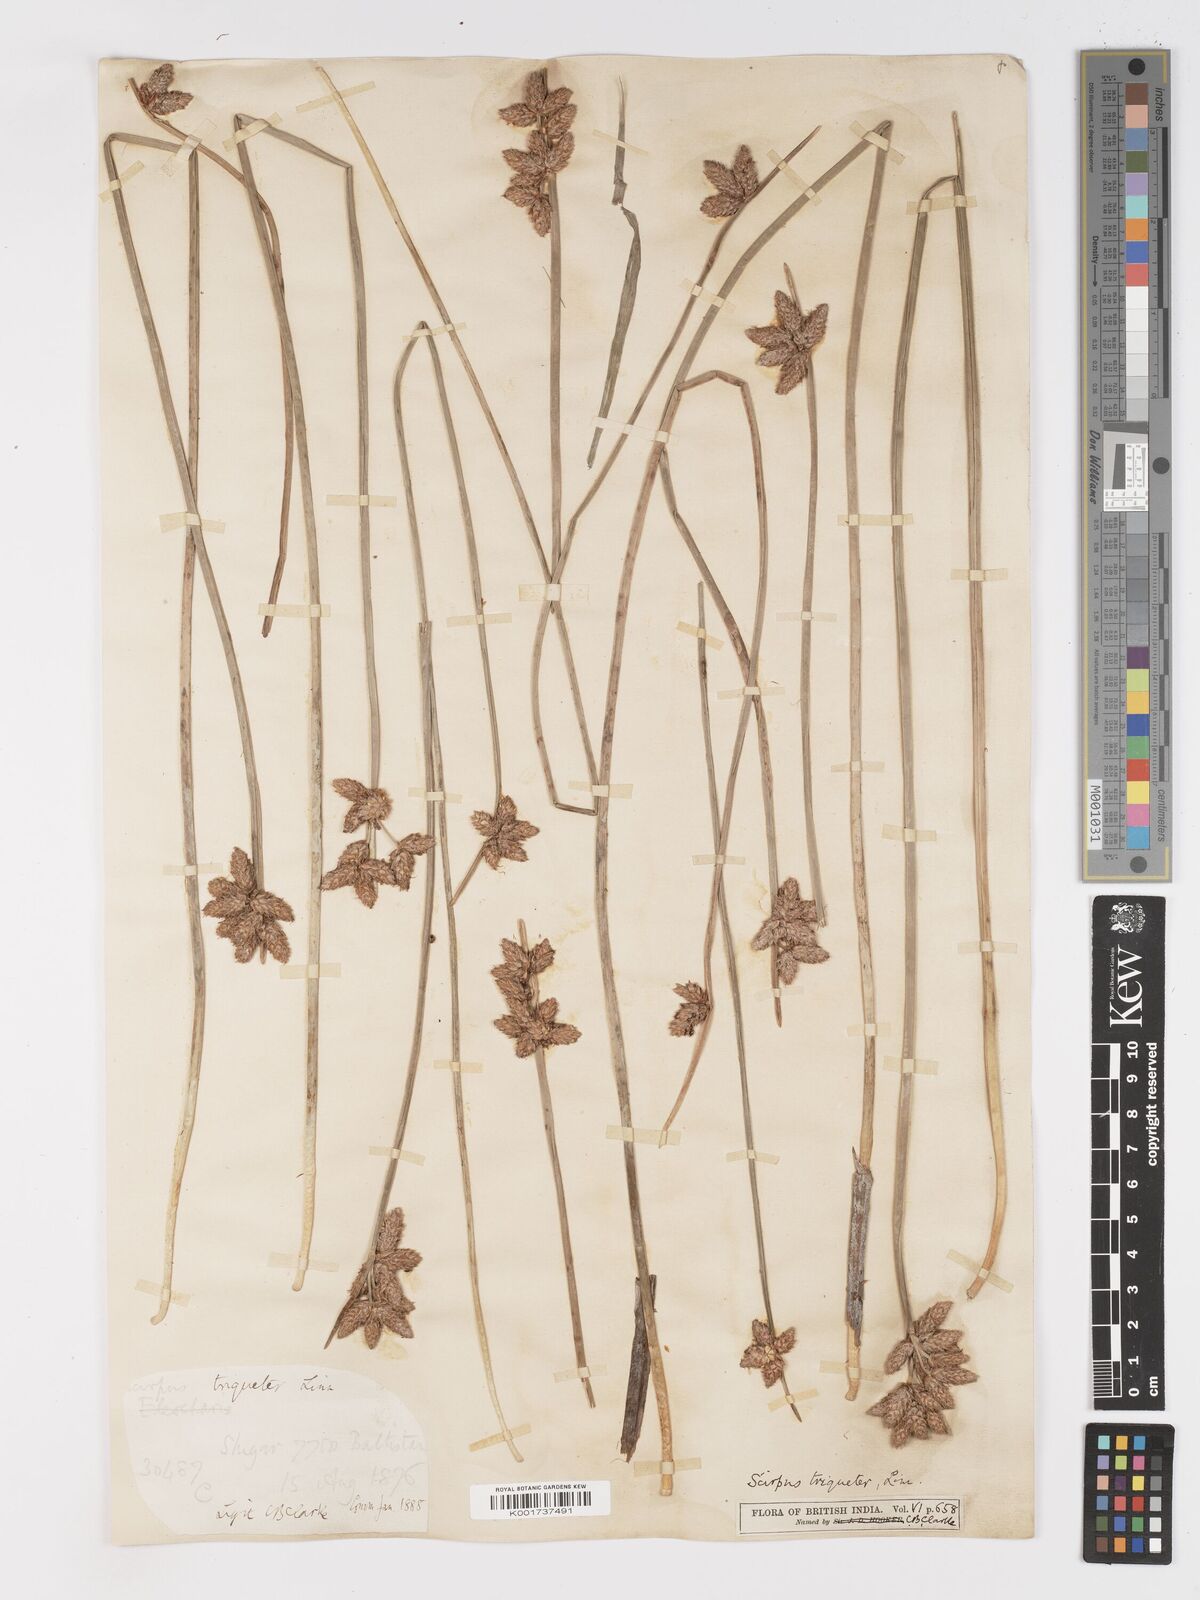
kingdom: Plantae
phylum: Tracheophyta
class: Liliopsida
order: Poales
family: Cyperaceae
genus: Schoenoplectus
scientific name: Schoenoplectus triqueter
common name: Triangular club-rush
